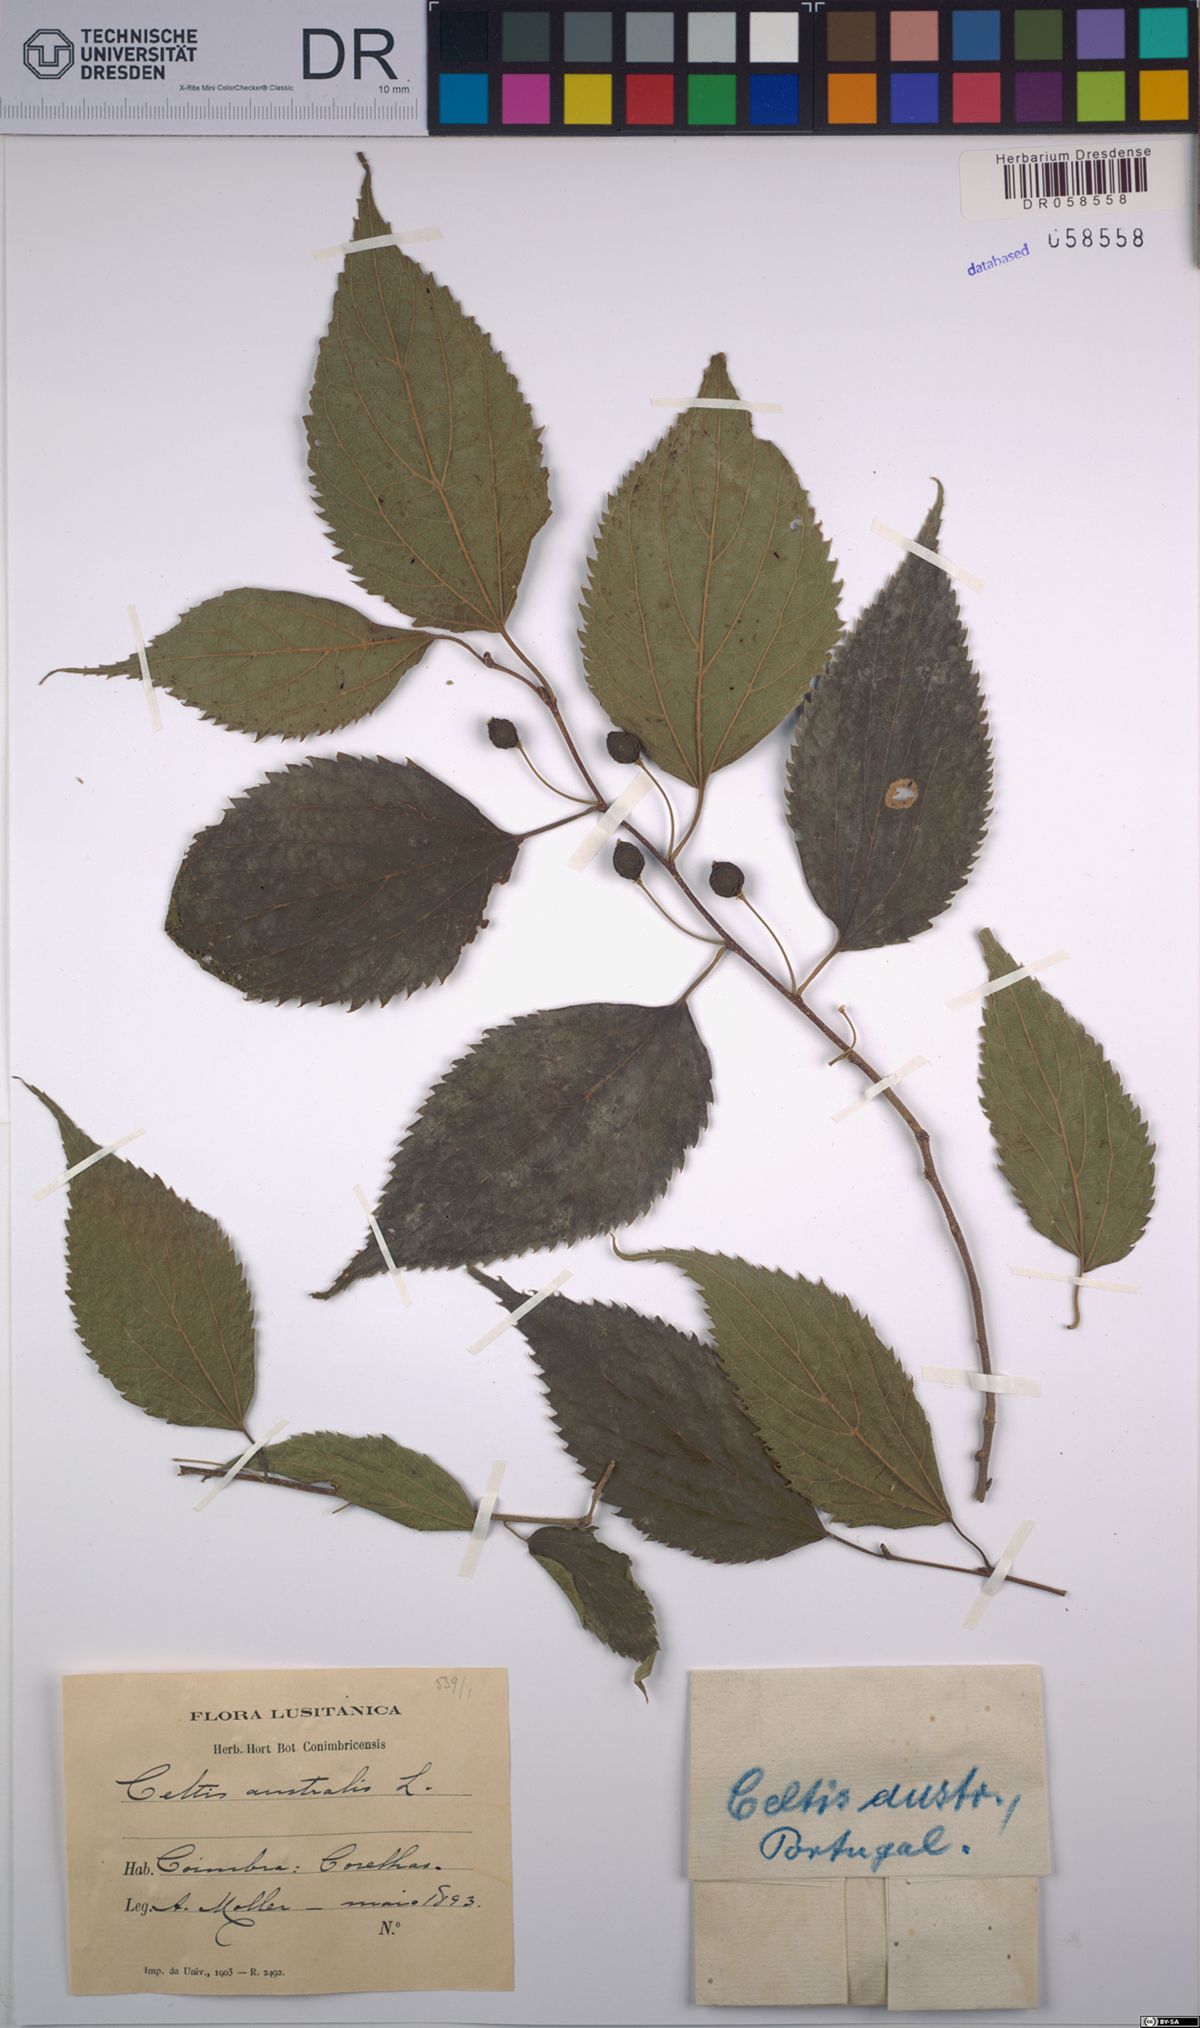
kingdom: Plantae
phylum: Tracheophyta
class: Magnoliopsida
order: Rosales
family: Cannabaceae
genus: Celtis
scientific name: Celtis australis
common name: European hackberry
